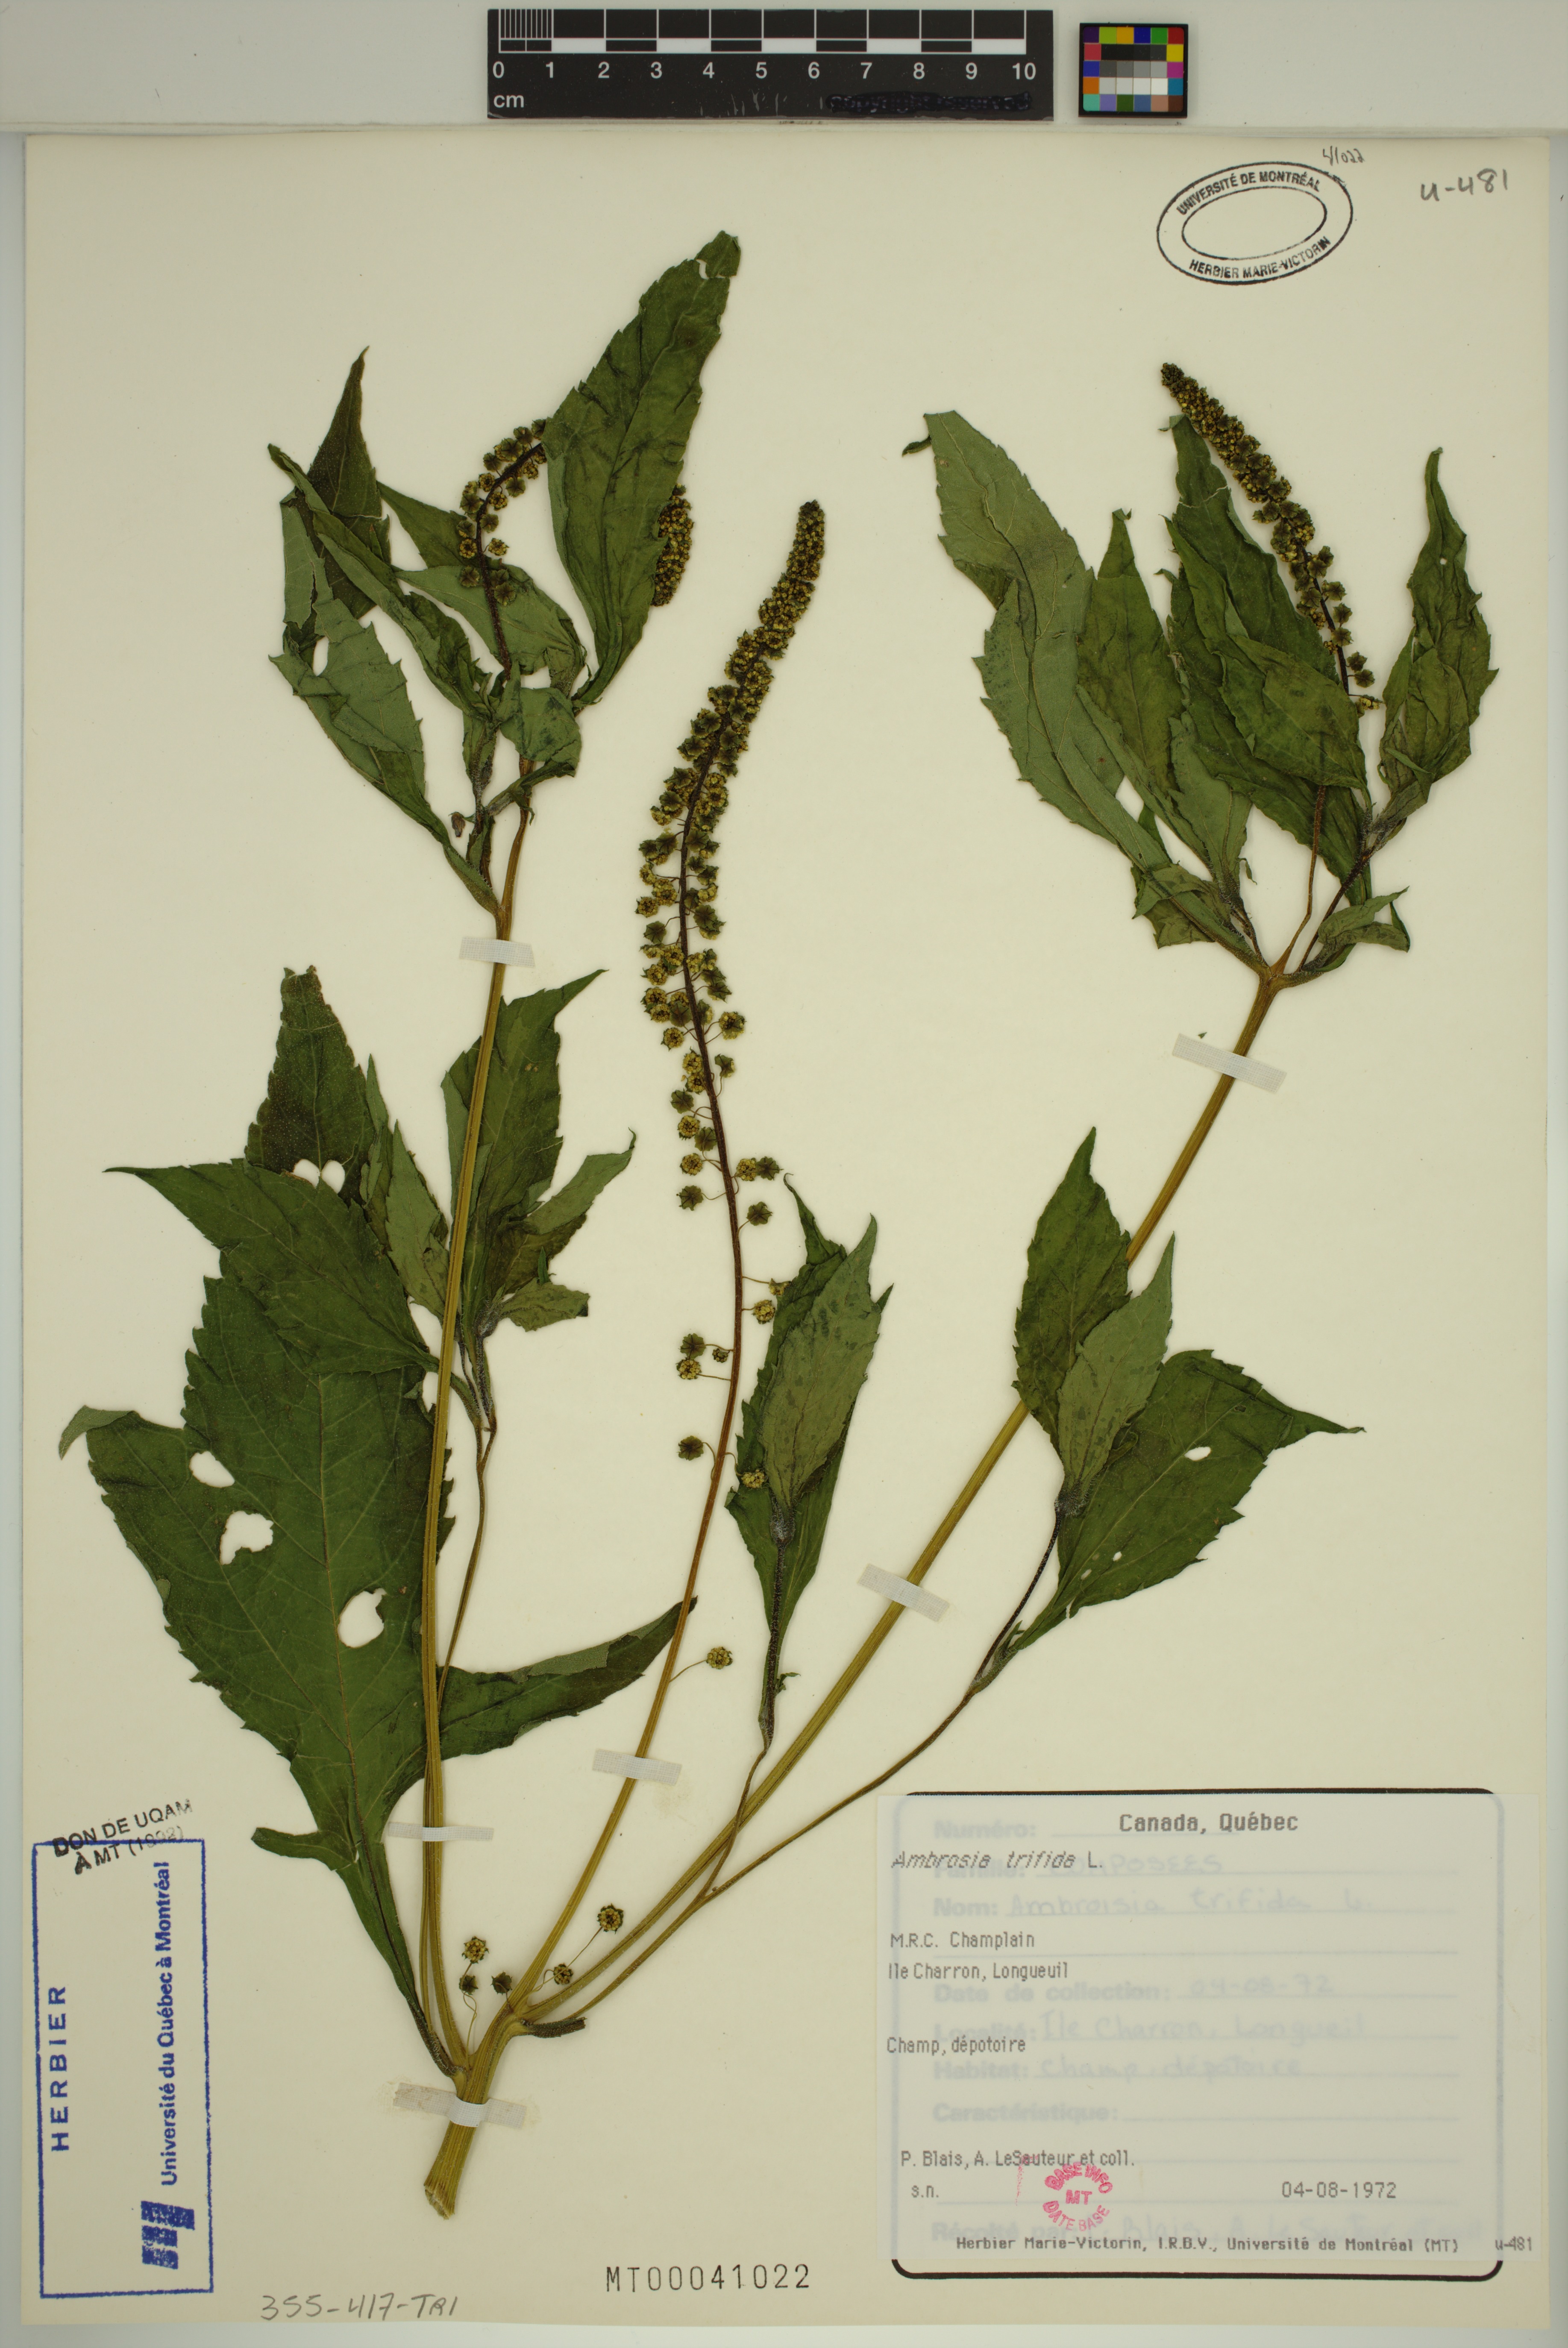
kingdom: Plantae
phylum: Tracheophyta
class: Magnoliopsida
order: Asterales
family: Asteraceae
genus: Ambrosia
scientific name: Ambrosia trifida
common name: Giant ragweed
